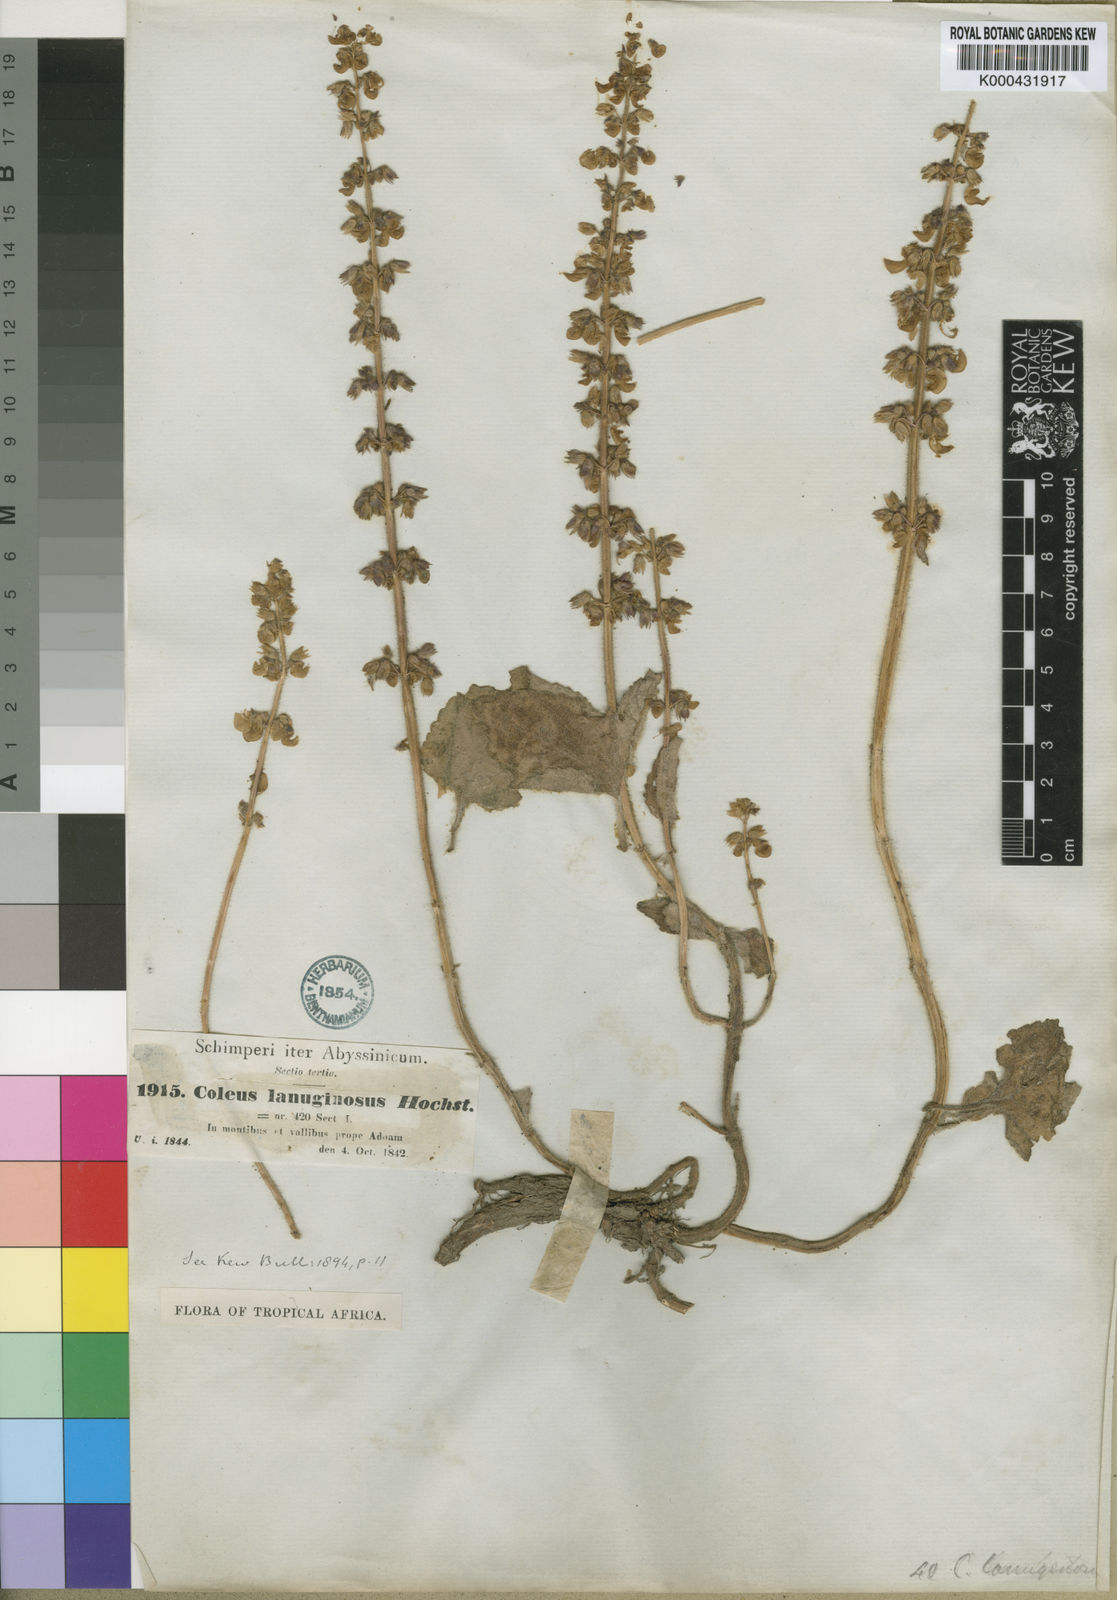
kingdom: Plantae
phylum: Tracheophyta
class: Magnoliopsida
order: Lamiales
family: Lamiaceae
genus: Coleus
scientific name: Coleus lanuginosus
